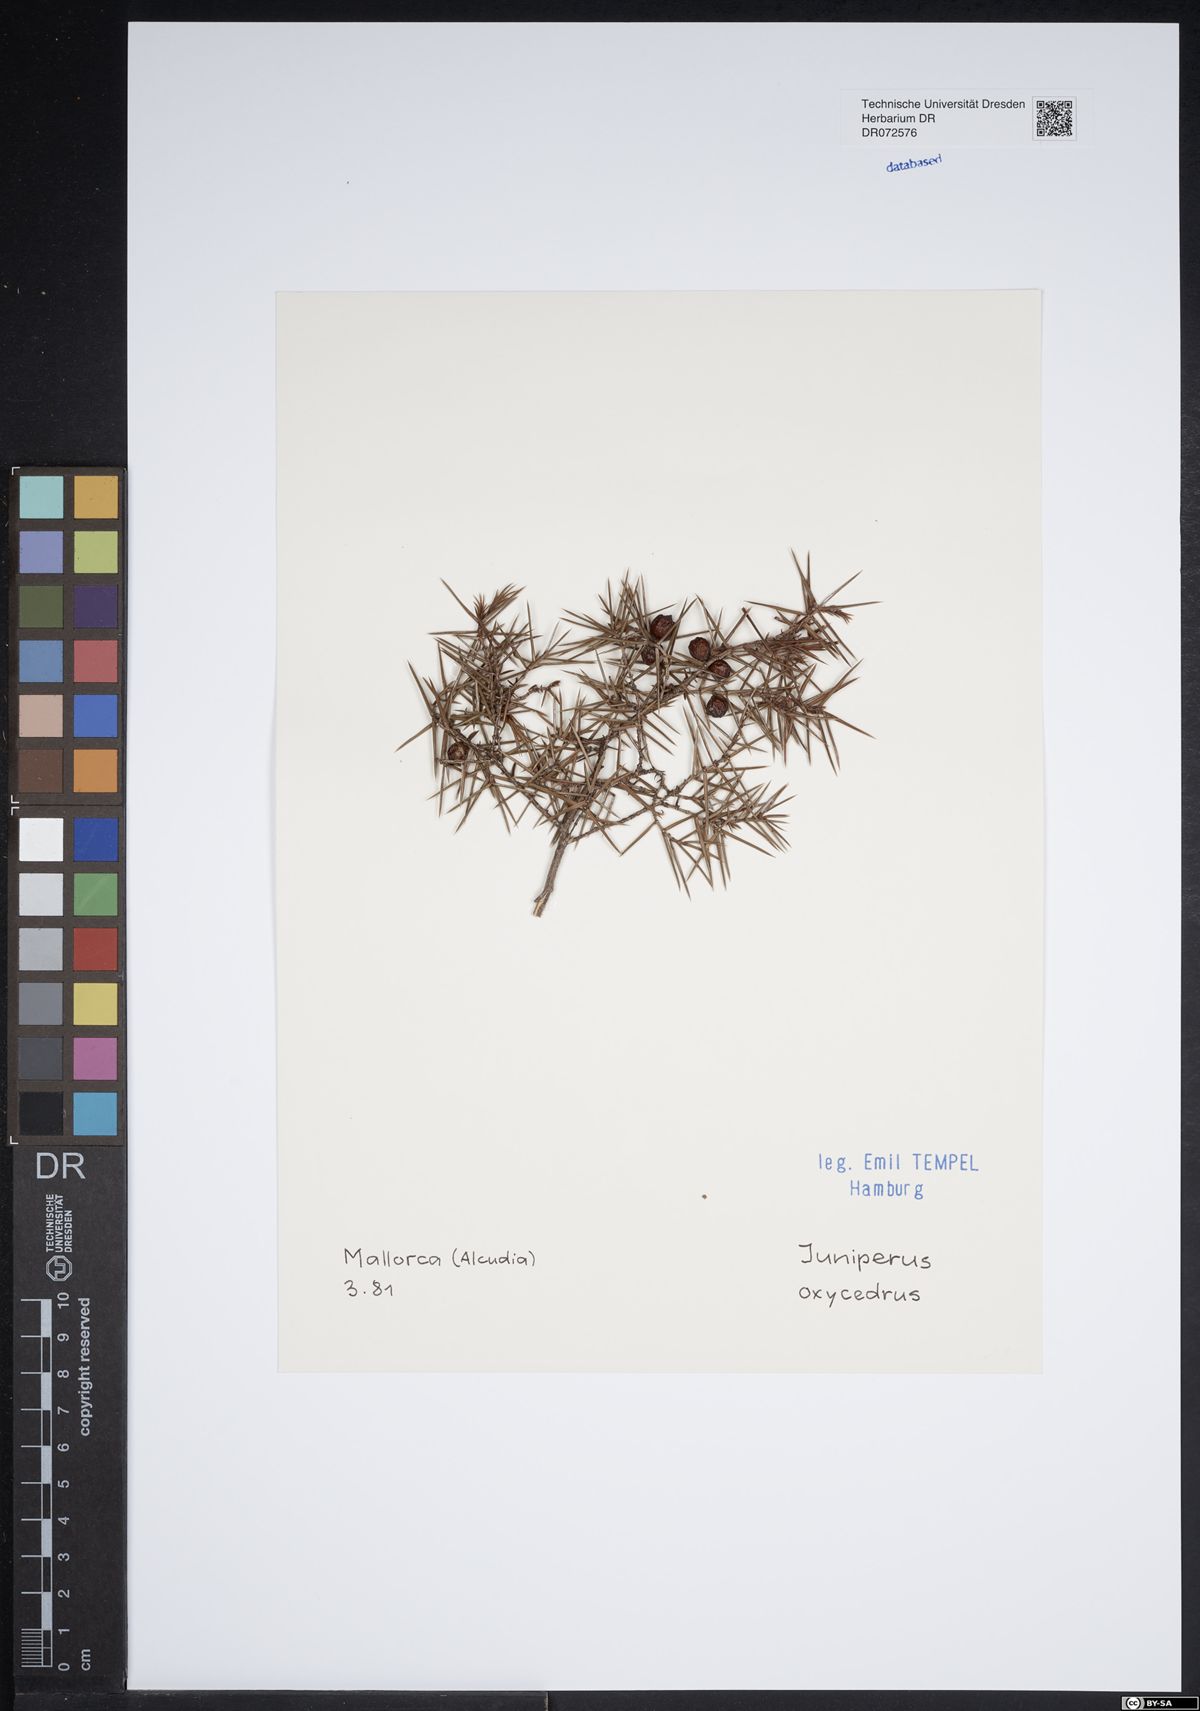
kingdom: Plantae
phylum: Tracheophyta
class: Pinopsida
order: Pinales
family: Cupressaceae
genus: Juniperus
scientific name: Juniperus oxycedrus
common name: Prickly juniper
